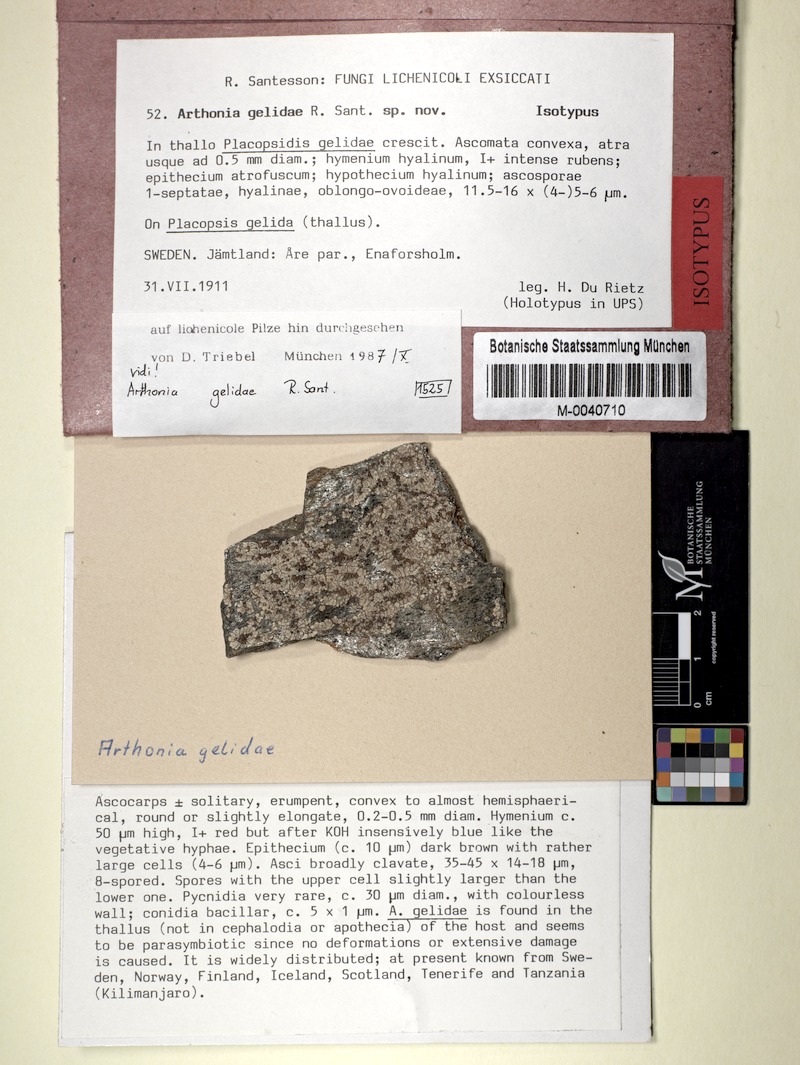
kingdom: Fungi
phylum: Ascomycota
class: Lecanoromycetes
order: Baeomycetales
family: Trapeliaceae
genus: Placopsis
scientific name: Placopsis gelida
